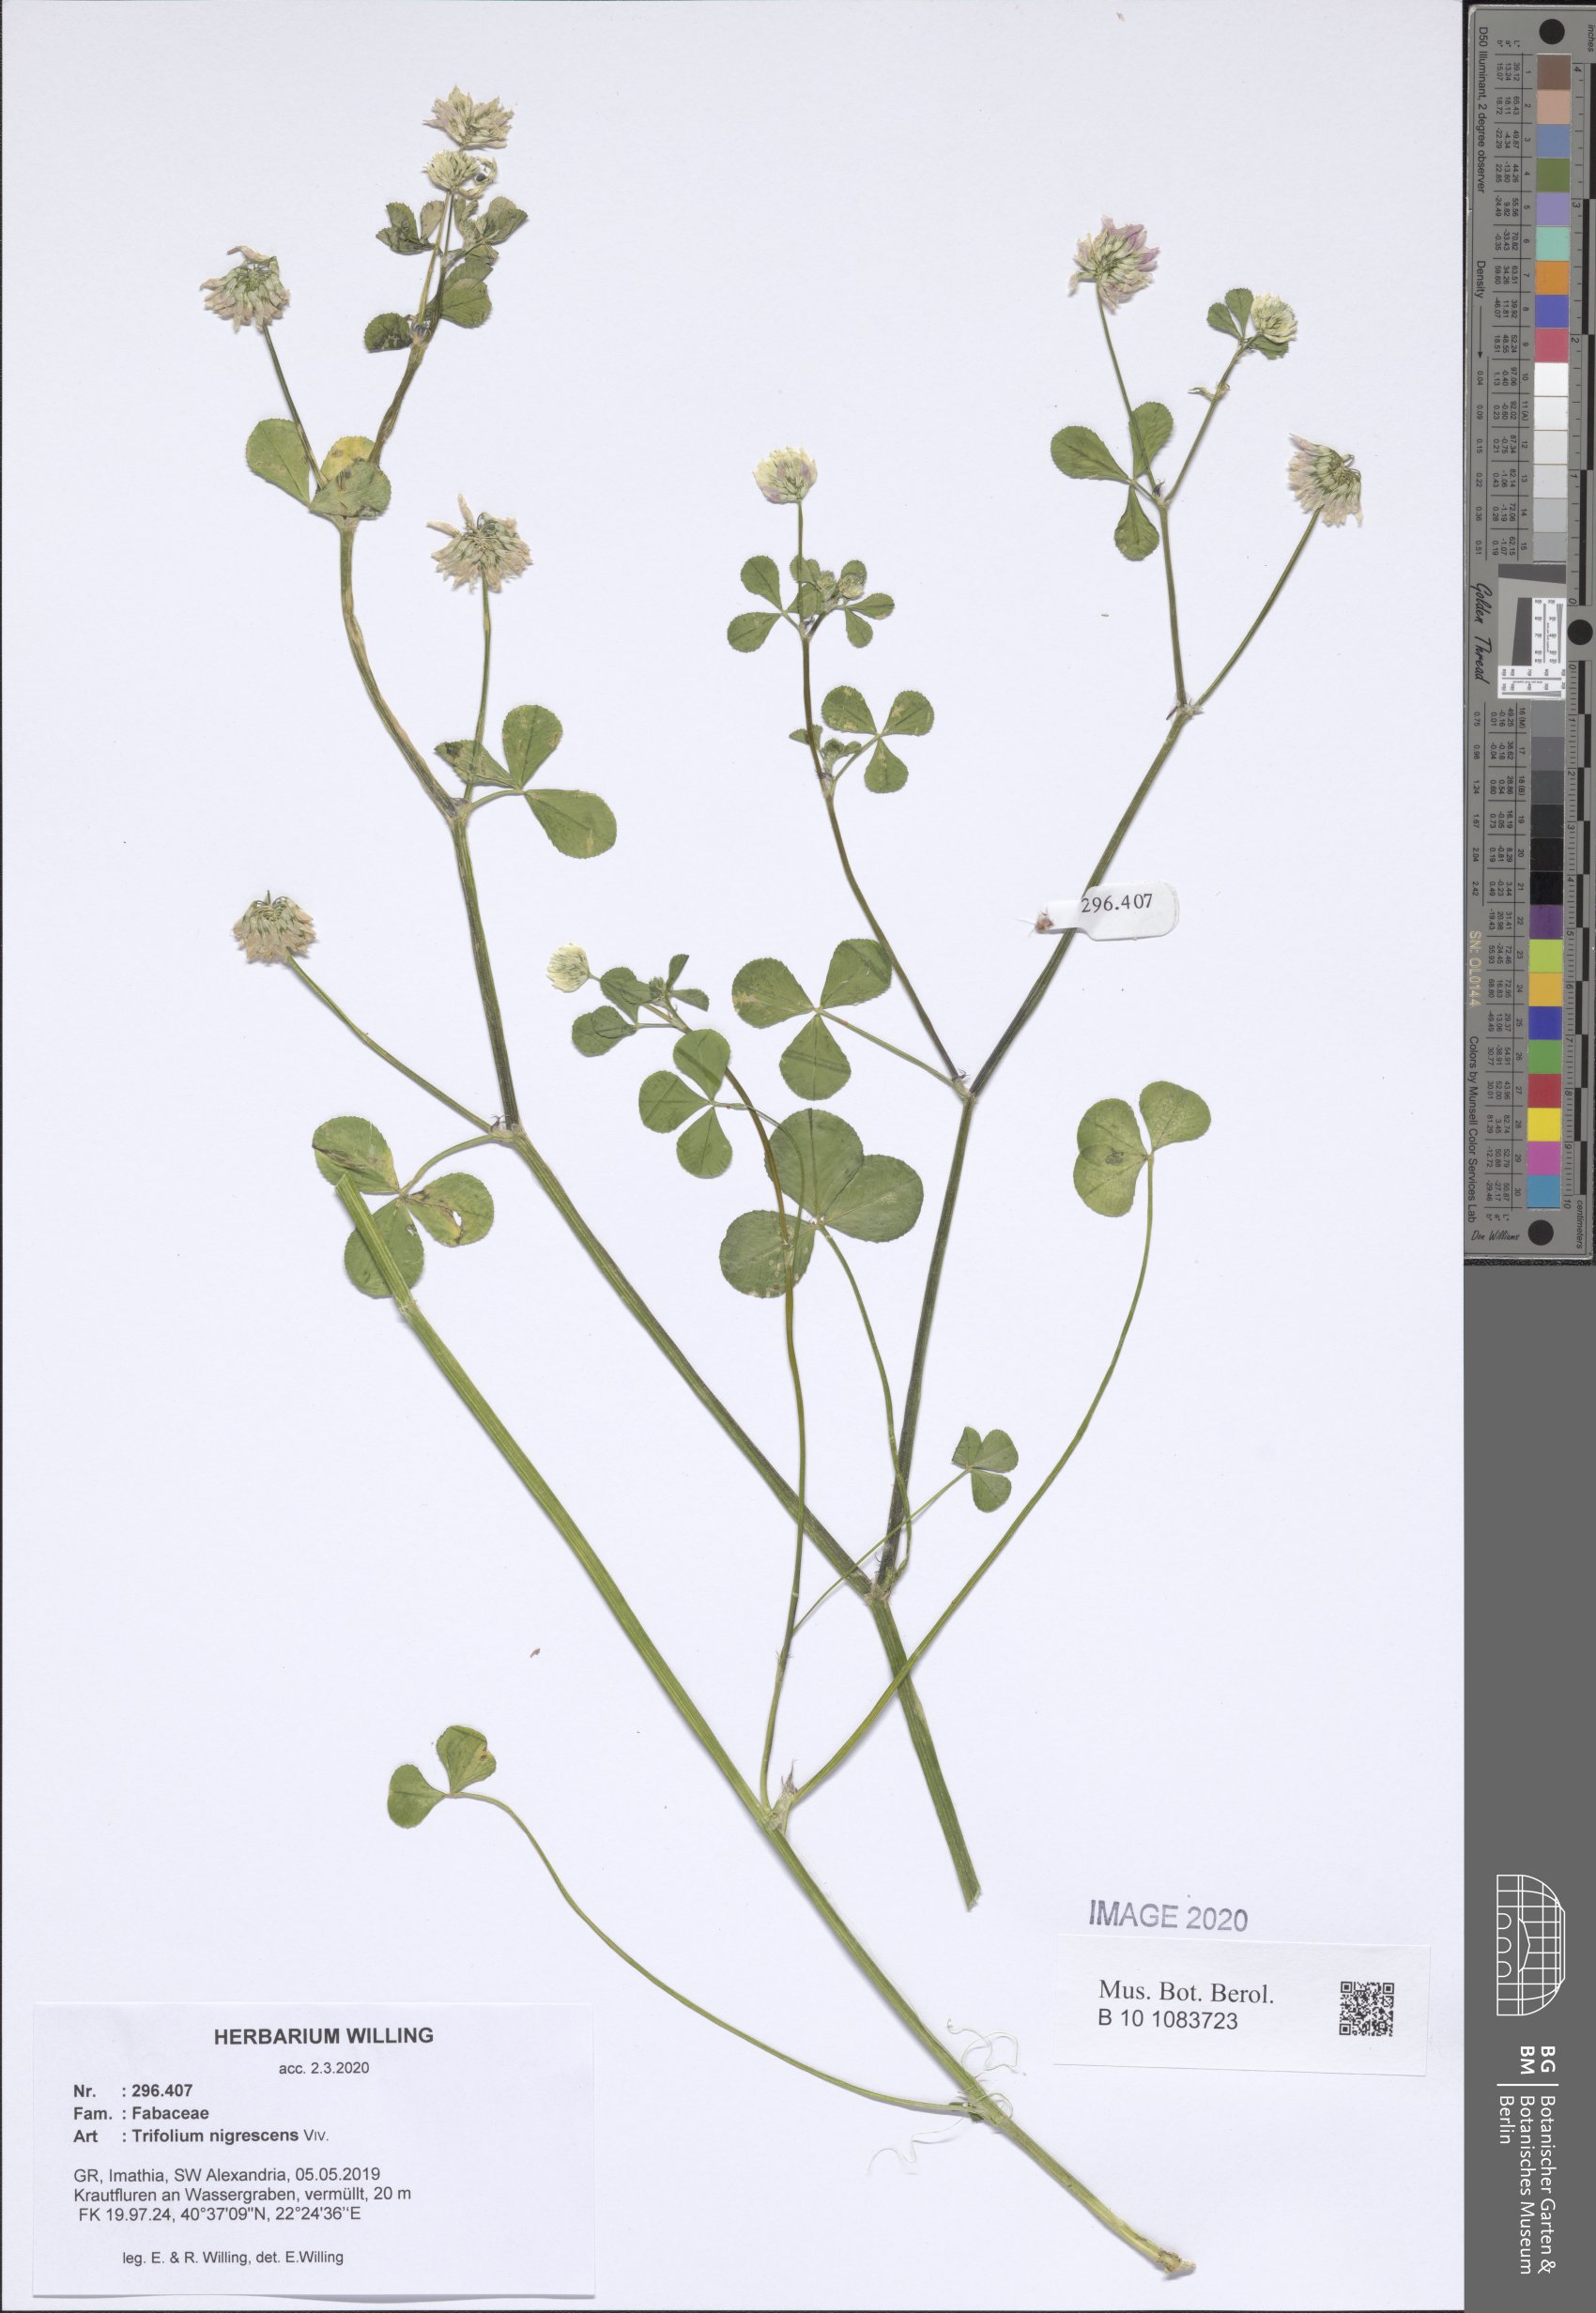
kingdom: Plantae
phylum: Tracheophyta
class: Magnoliopsida
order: Fabales
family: Fabaceae
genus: Trifolium
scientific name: Trifolium nigrescens
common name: Small white clover
